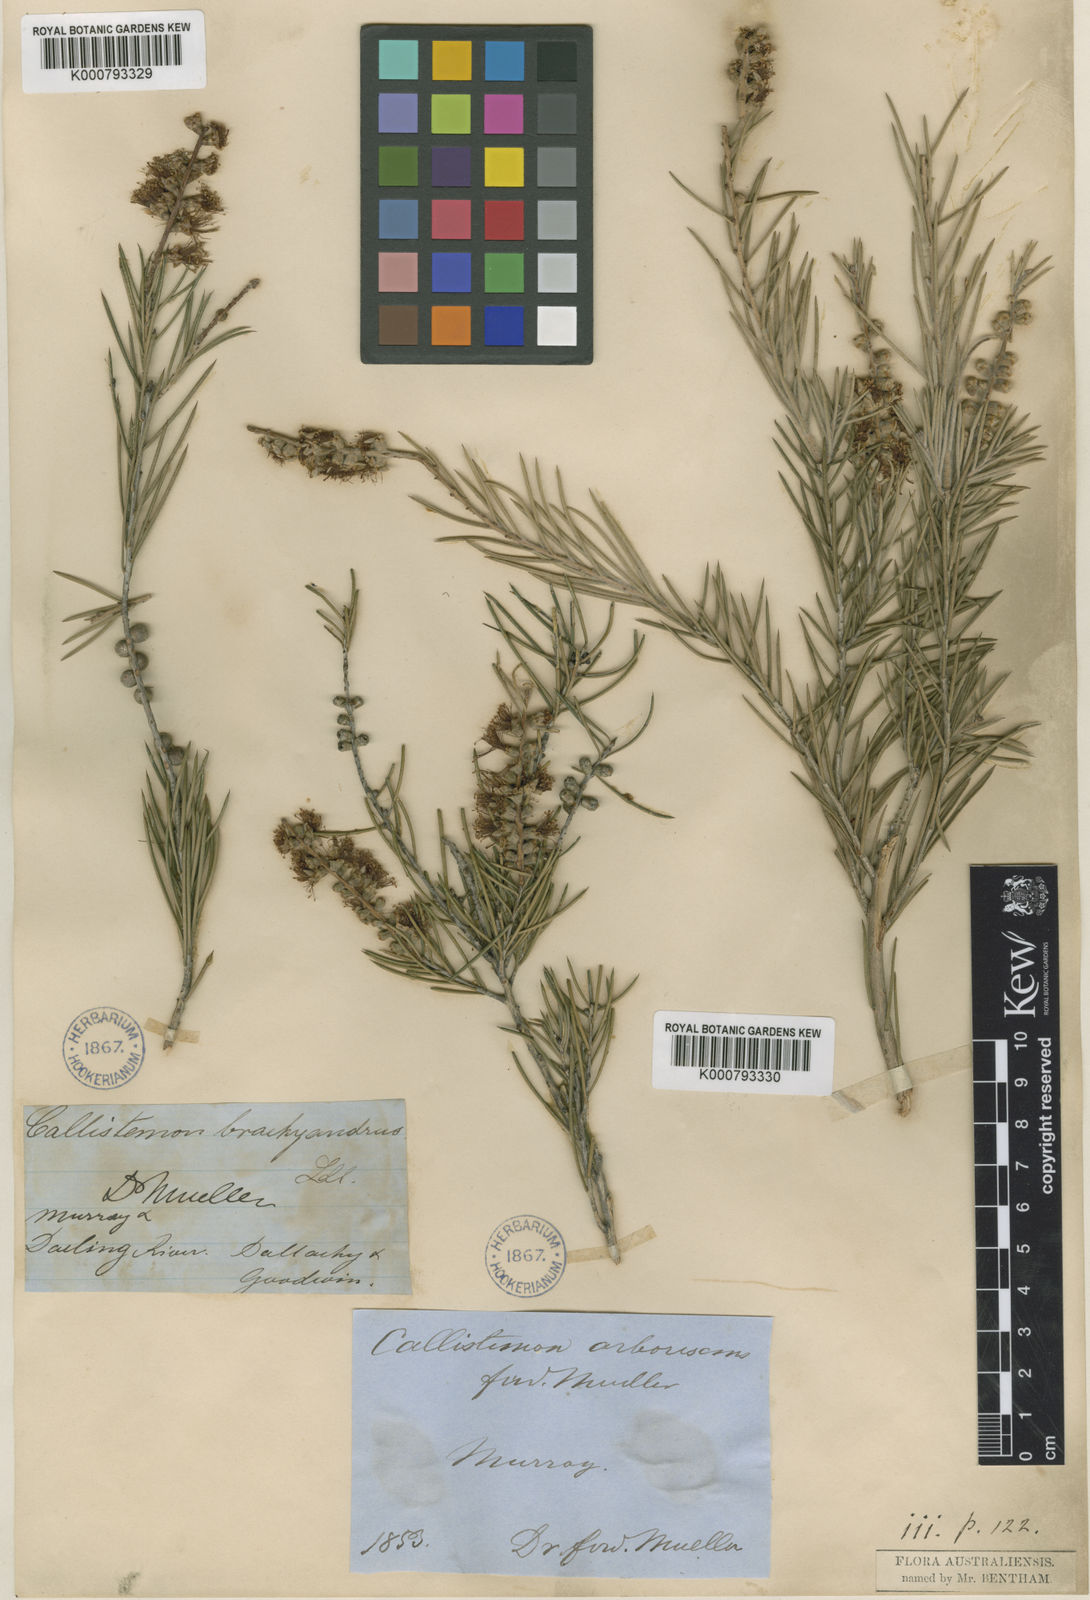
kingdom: Plantae
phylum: Tracheophyta
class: Magnoliopsida
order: Myrtales
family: Myrtaceae
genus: Callistemon
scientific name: Callistemon brachyandrus
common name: Prickly bottlebrush
